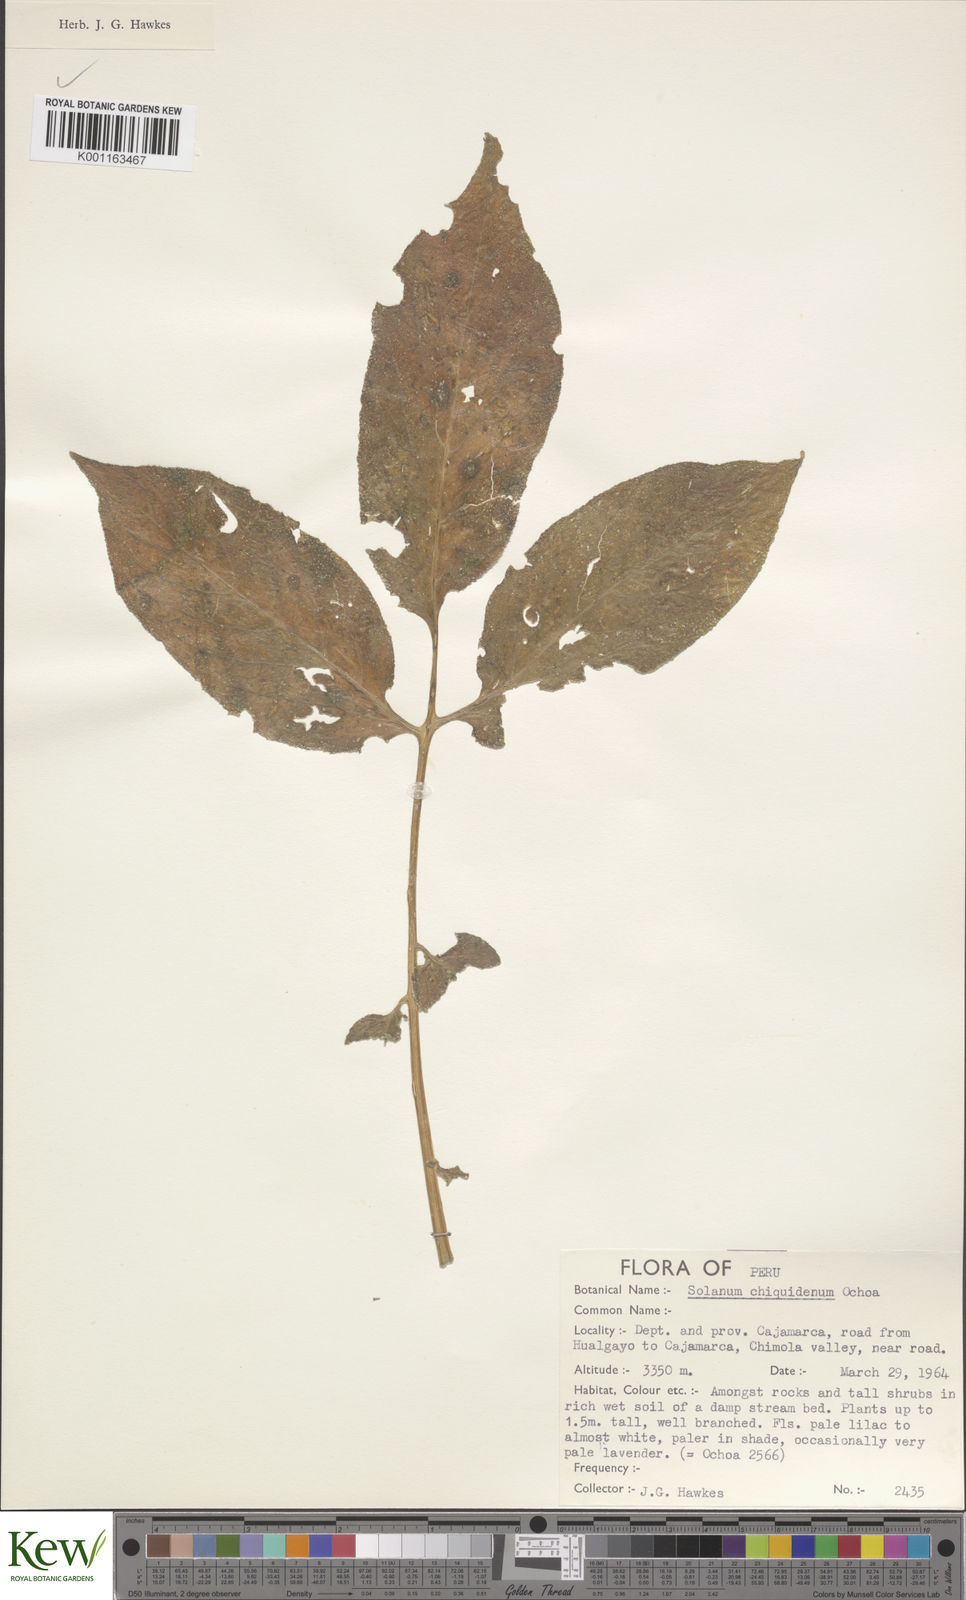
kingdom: Plantae
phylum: Tracheophyta
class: Magnoliopsida
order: Solanales
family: Solanaceae
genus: Solanum
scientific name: Solanum chiquidenum
